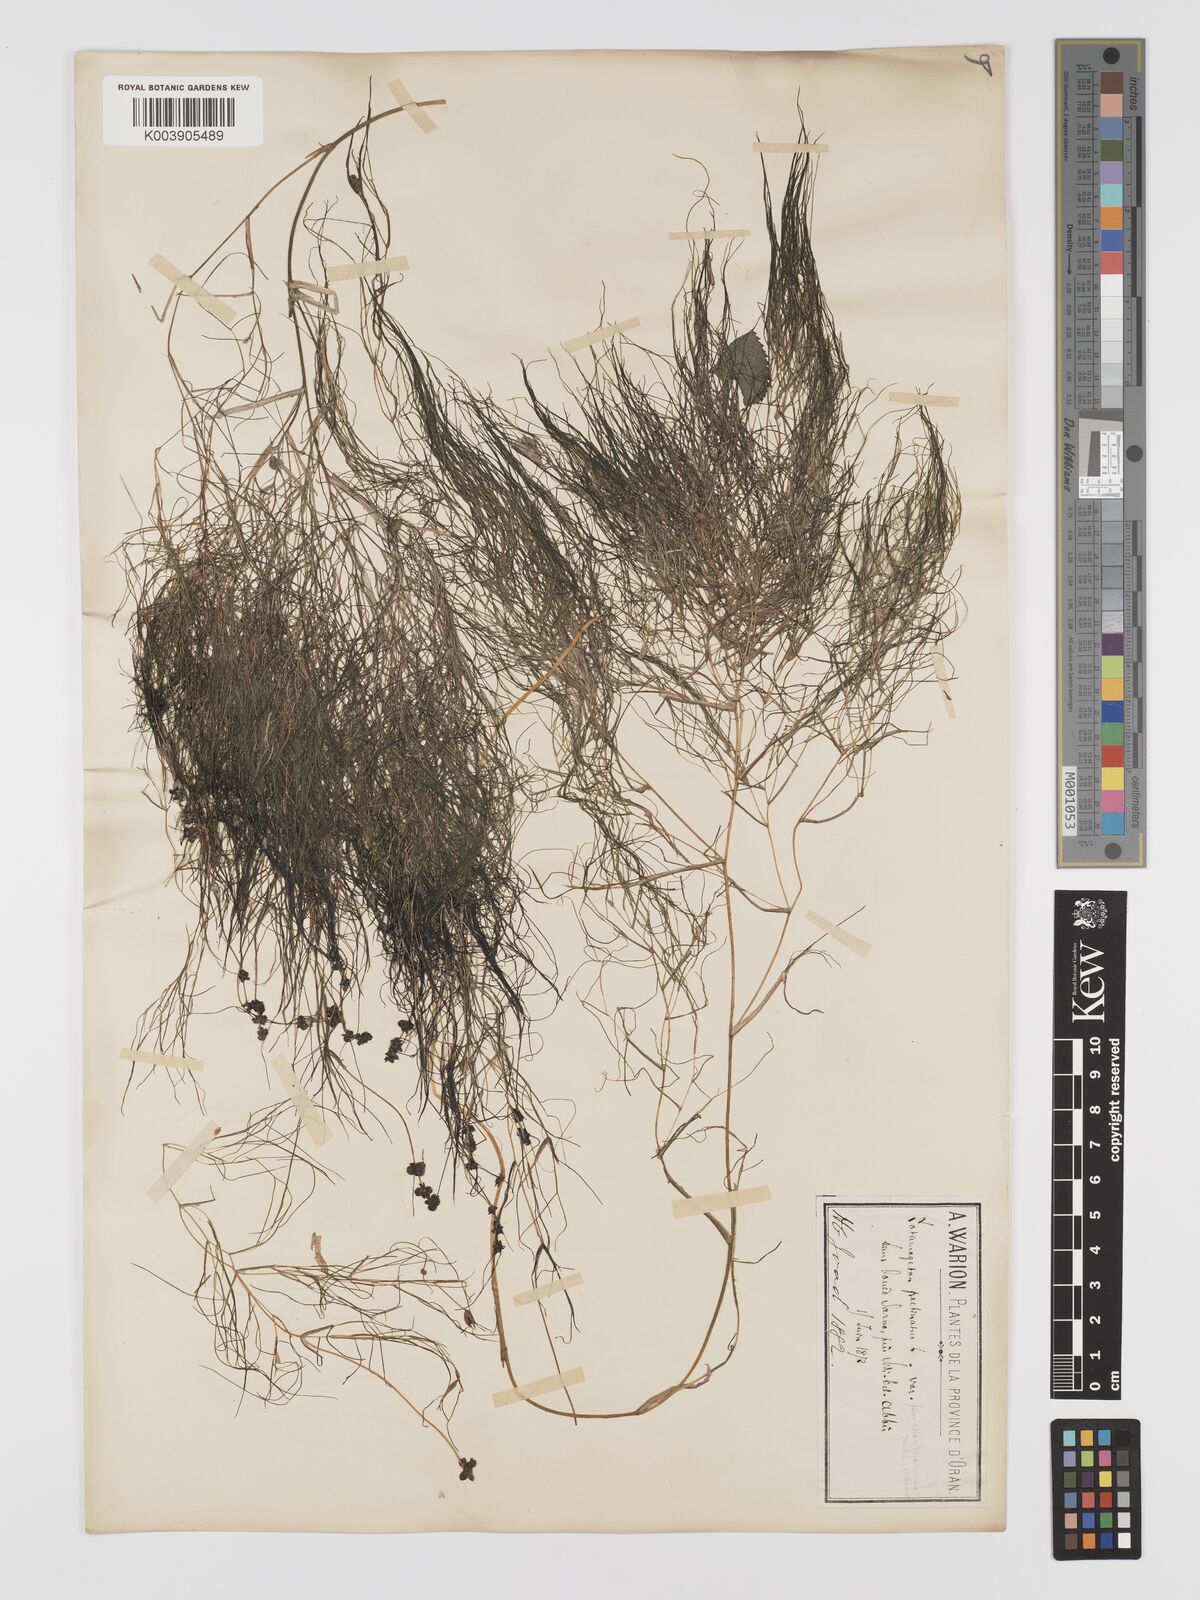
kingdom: Plantae
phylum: Tracheophyta
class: Liliopsida
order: Alismatales
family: Potamogetonaceae
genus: Stuckenia
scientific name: Stuckenia pectinata
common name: Sago pondweed
